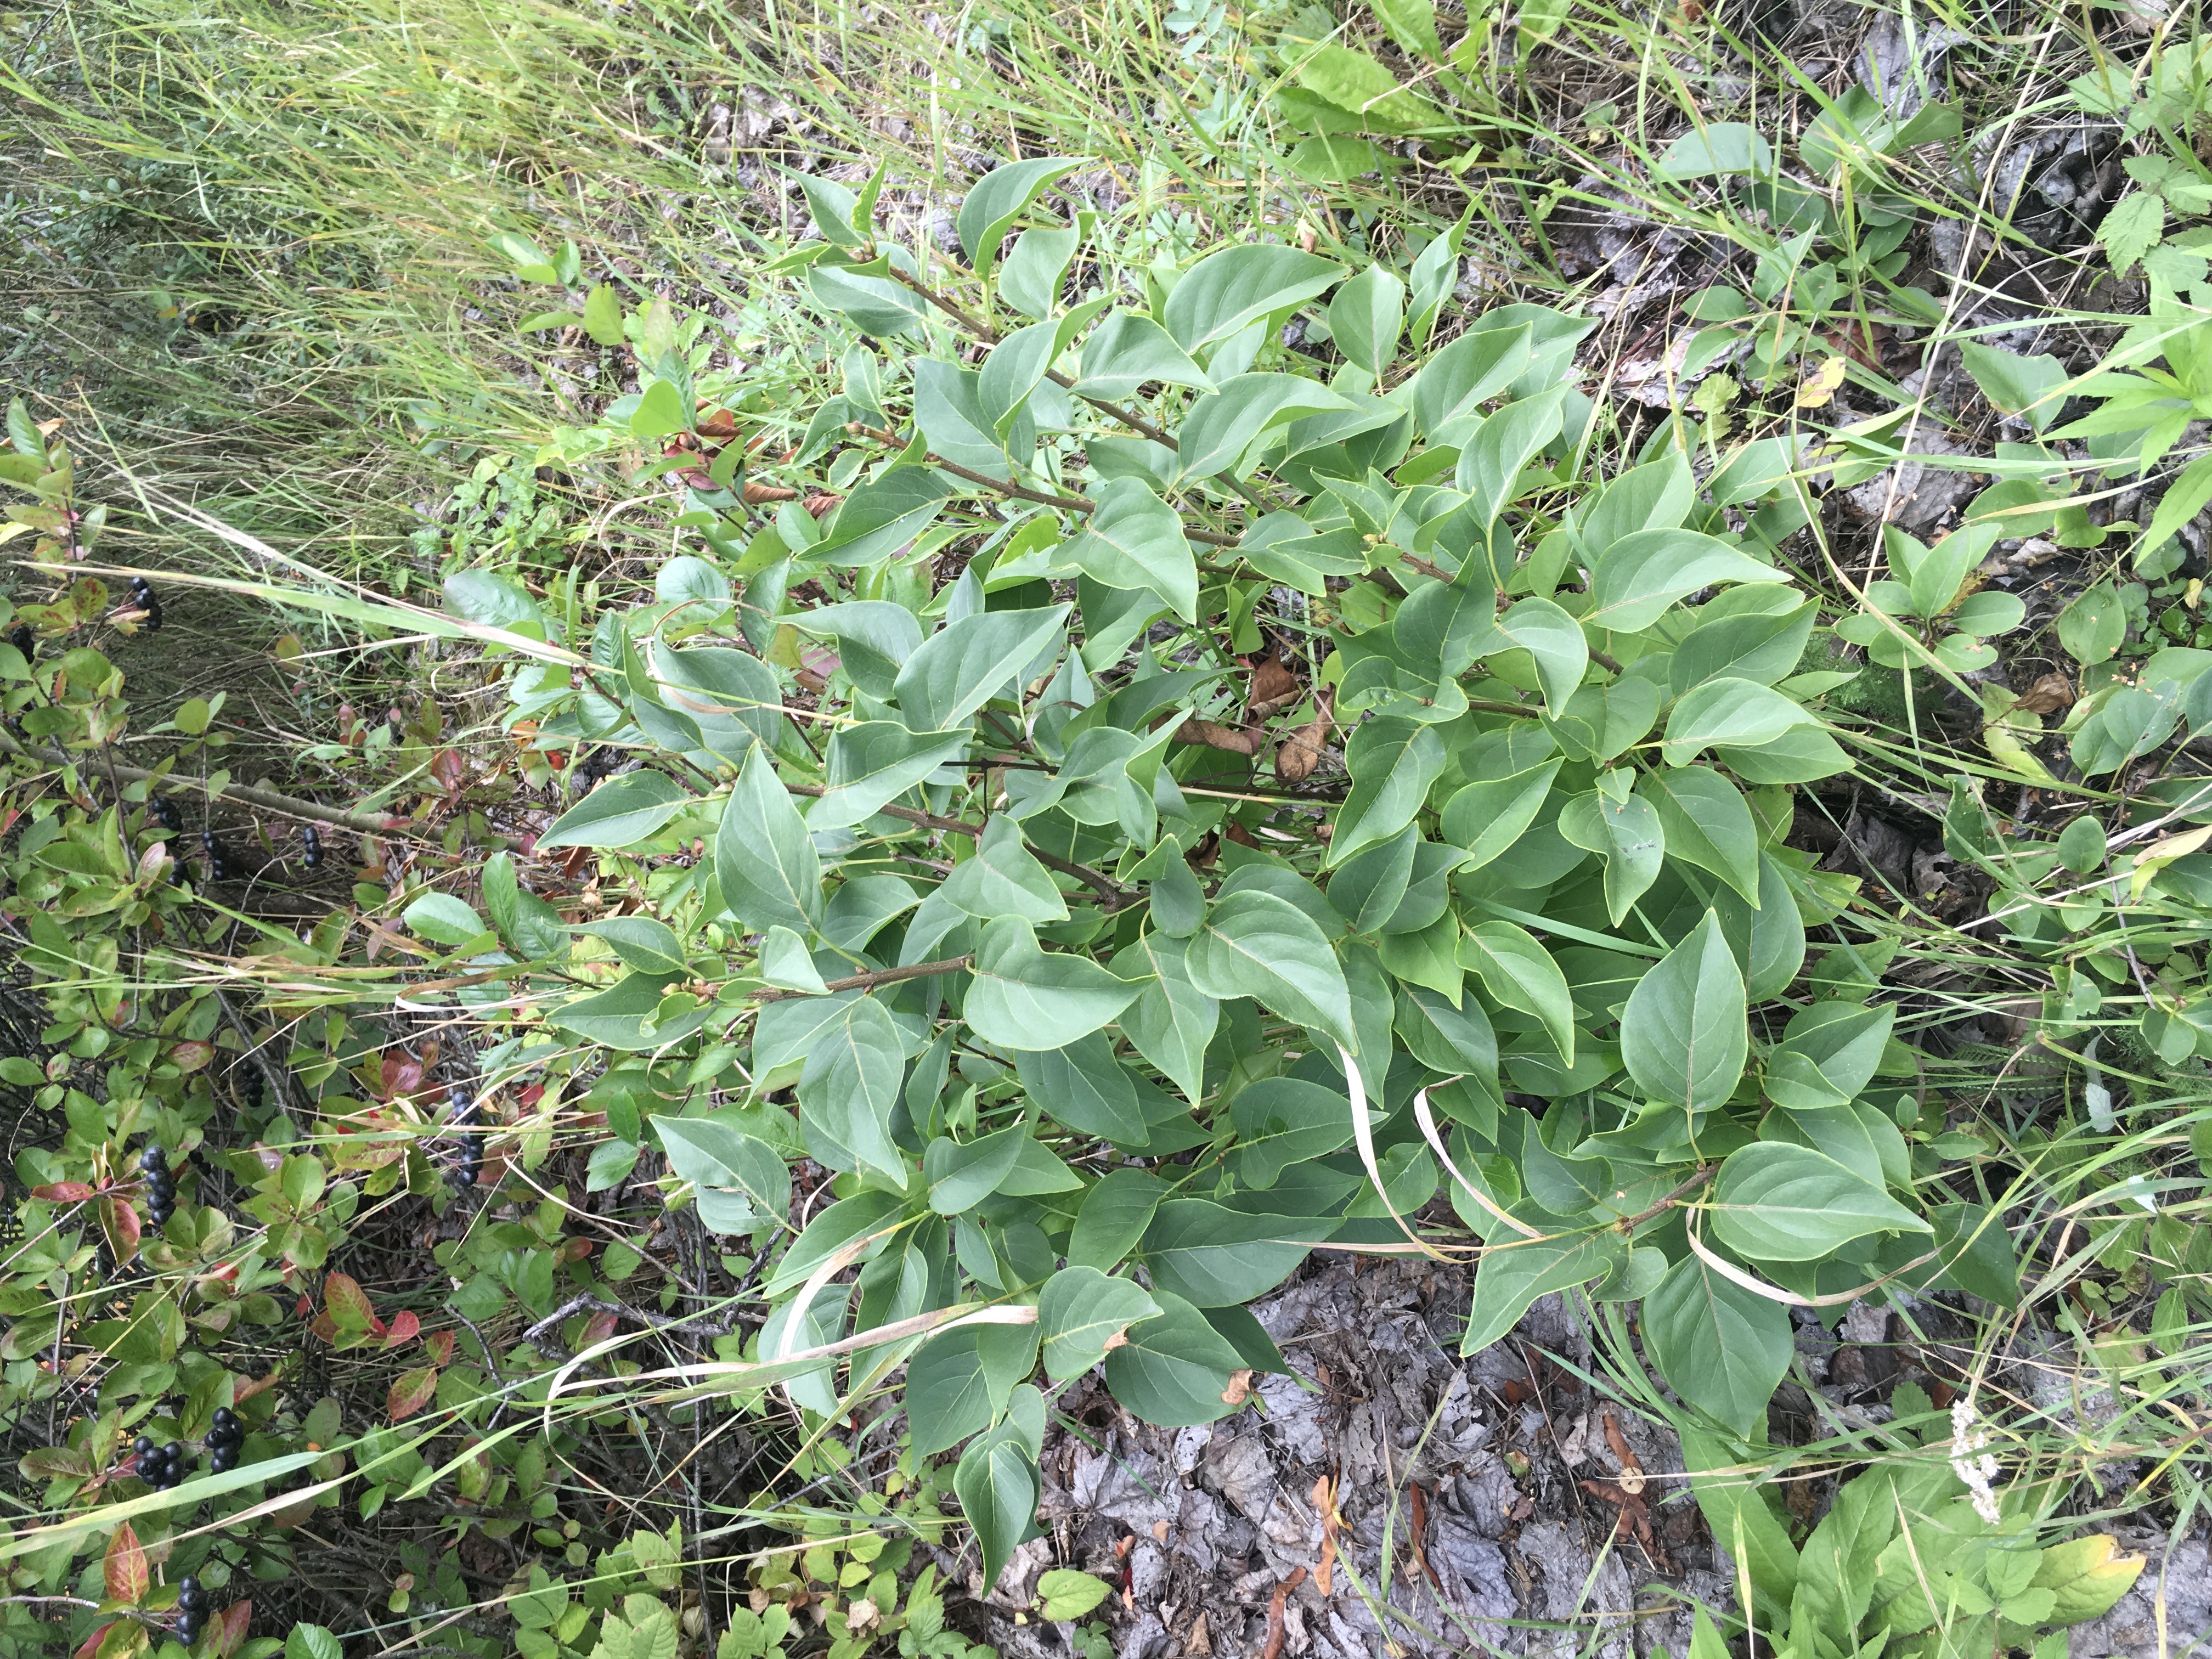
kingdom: Plantae
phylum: Tracheophyta
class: Magnoliopsida
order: Lamiales
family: Oleaceae
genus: Syringa
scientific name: Syringa vulgaris
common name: syrin
